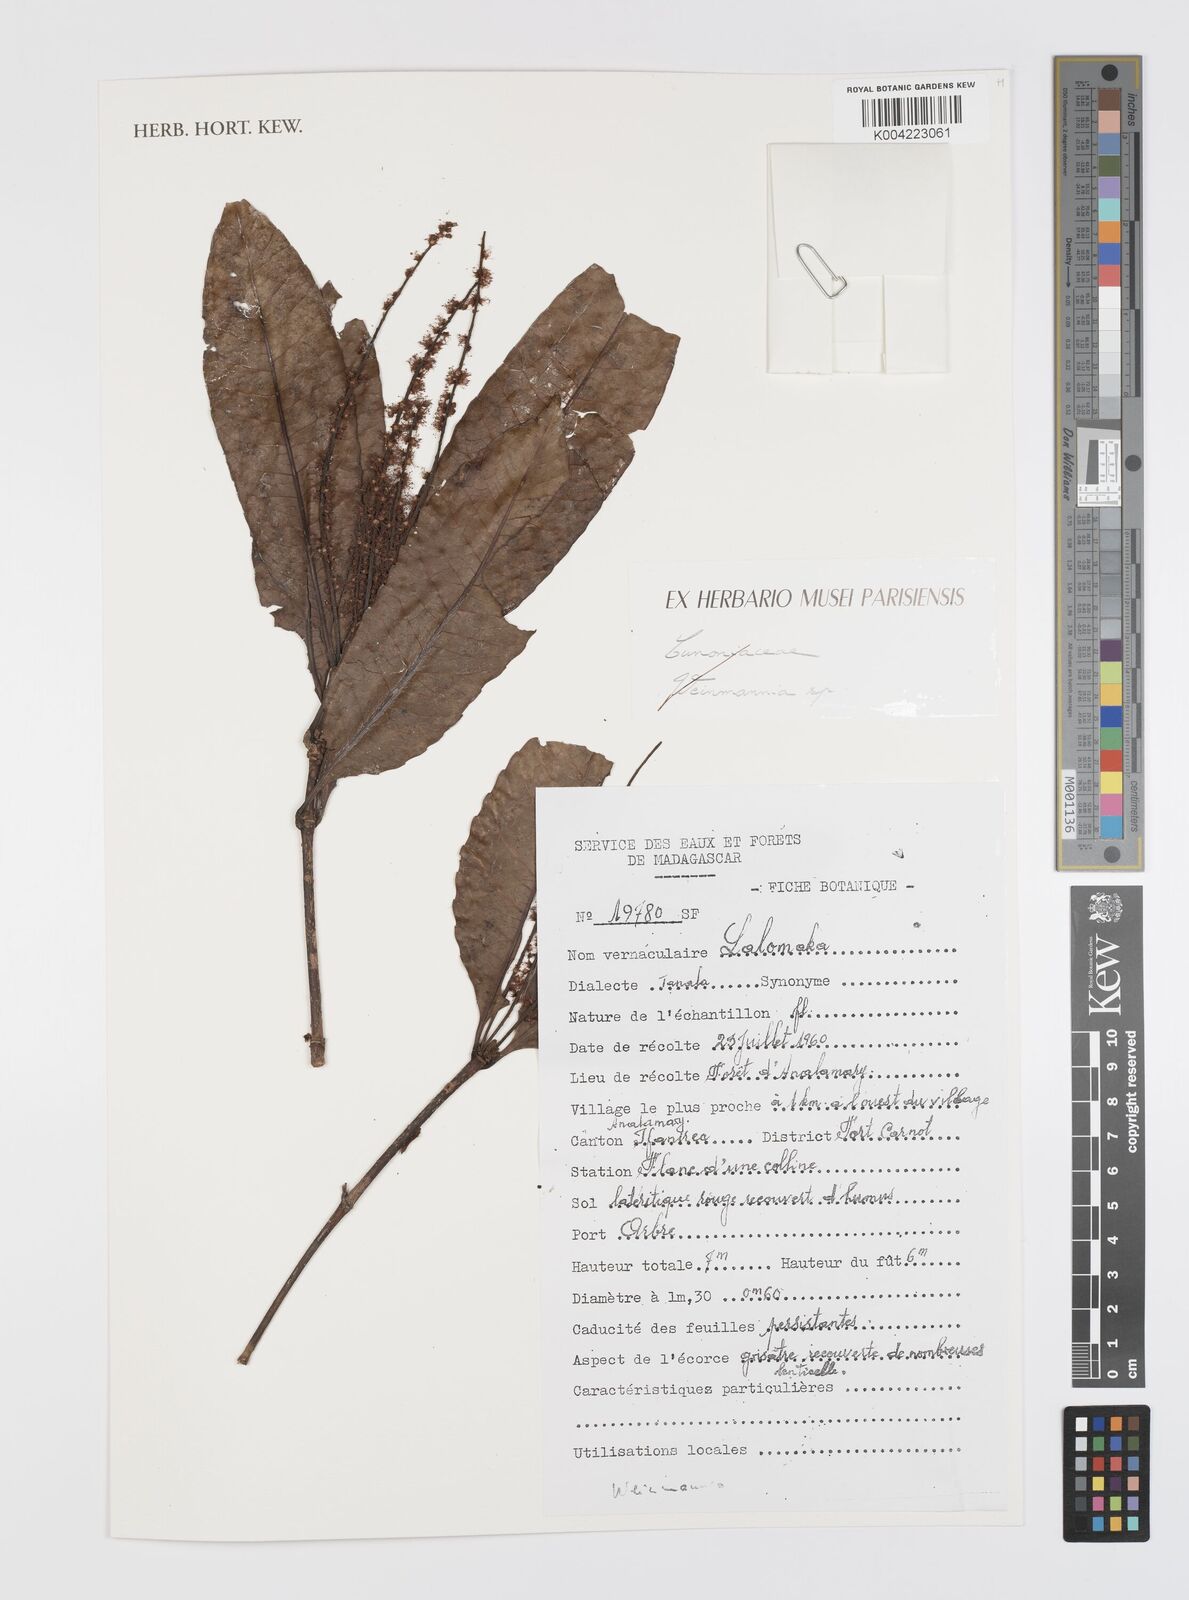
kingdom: Plantae
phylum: Tracheophyta
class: Magnoliopsida
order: Oxalidales
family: Cunoniaceae
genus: Weinmannia
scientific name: Weinmannia
